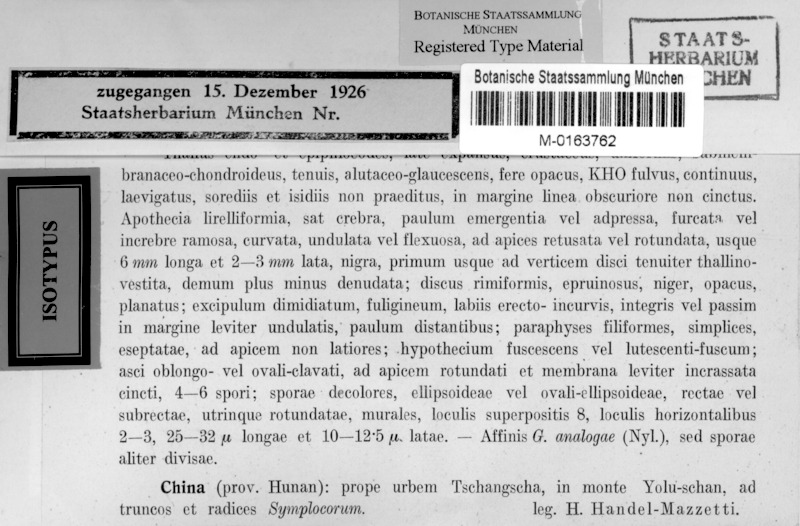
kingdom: Fungi
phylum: Ascomycota
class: Lecanoromycetes
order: Ostropales
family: Graphidaceae
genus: Graphina
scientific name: Graphina symplocorum
